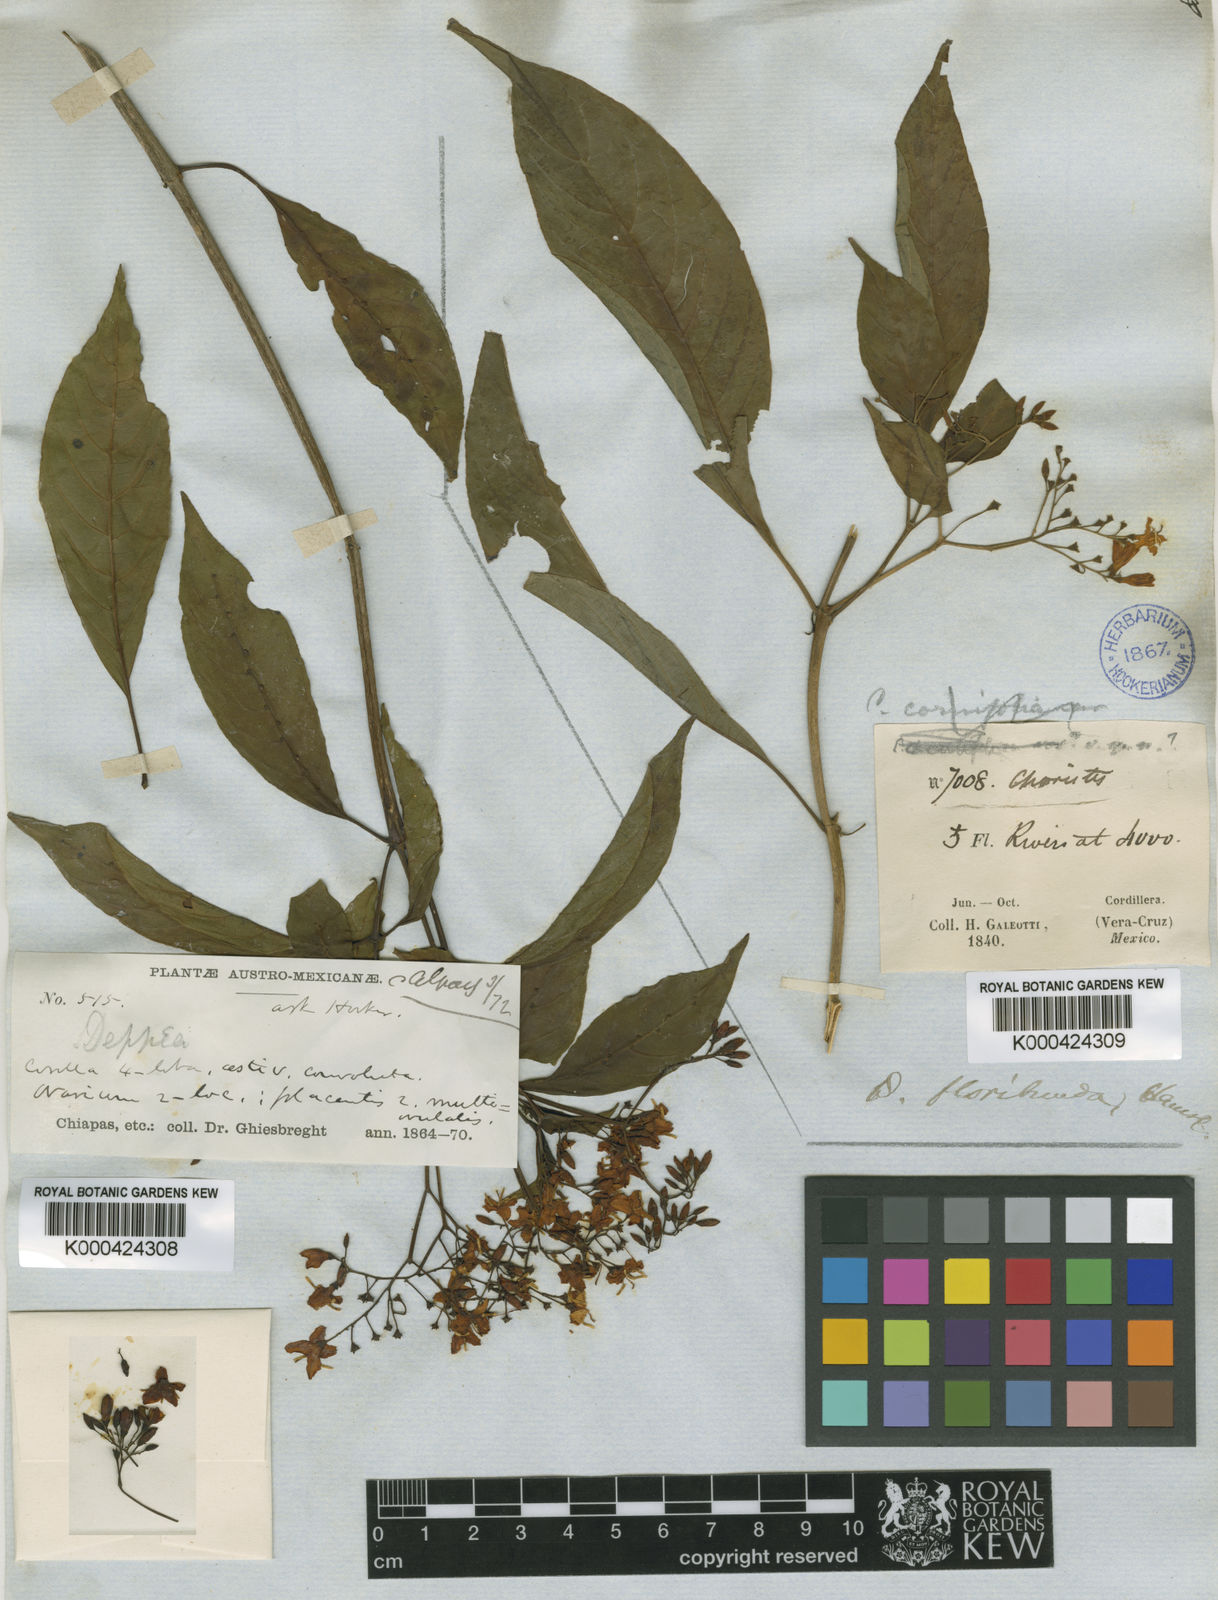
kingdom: Plantae
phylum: Tracheophyta
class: Magnoliopsida
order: Gentianales
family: Rubiaceae
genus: Deppea
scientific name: Deppea grandiflora
